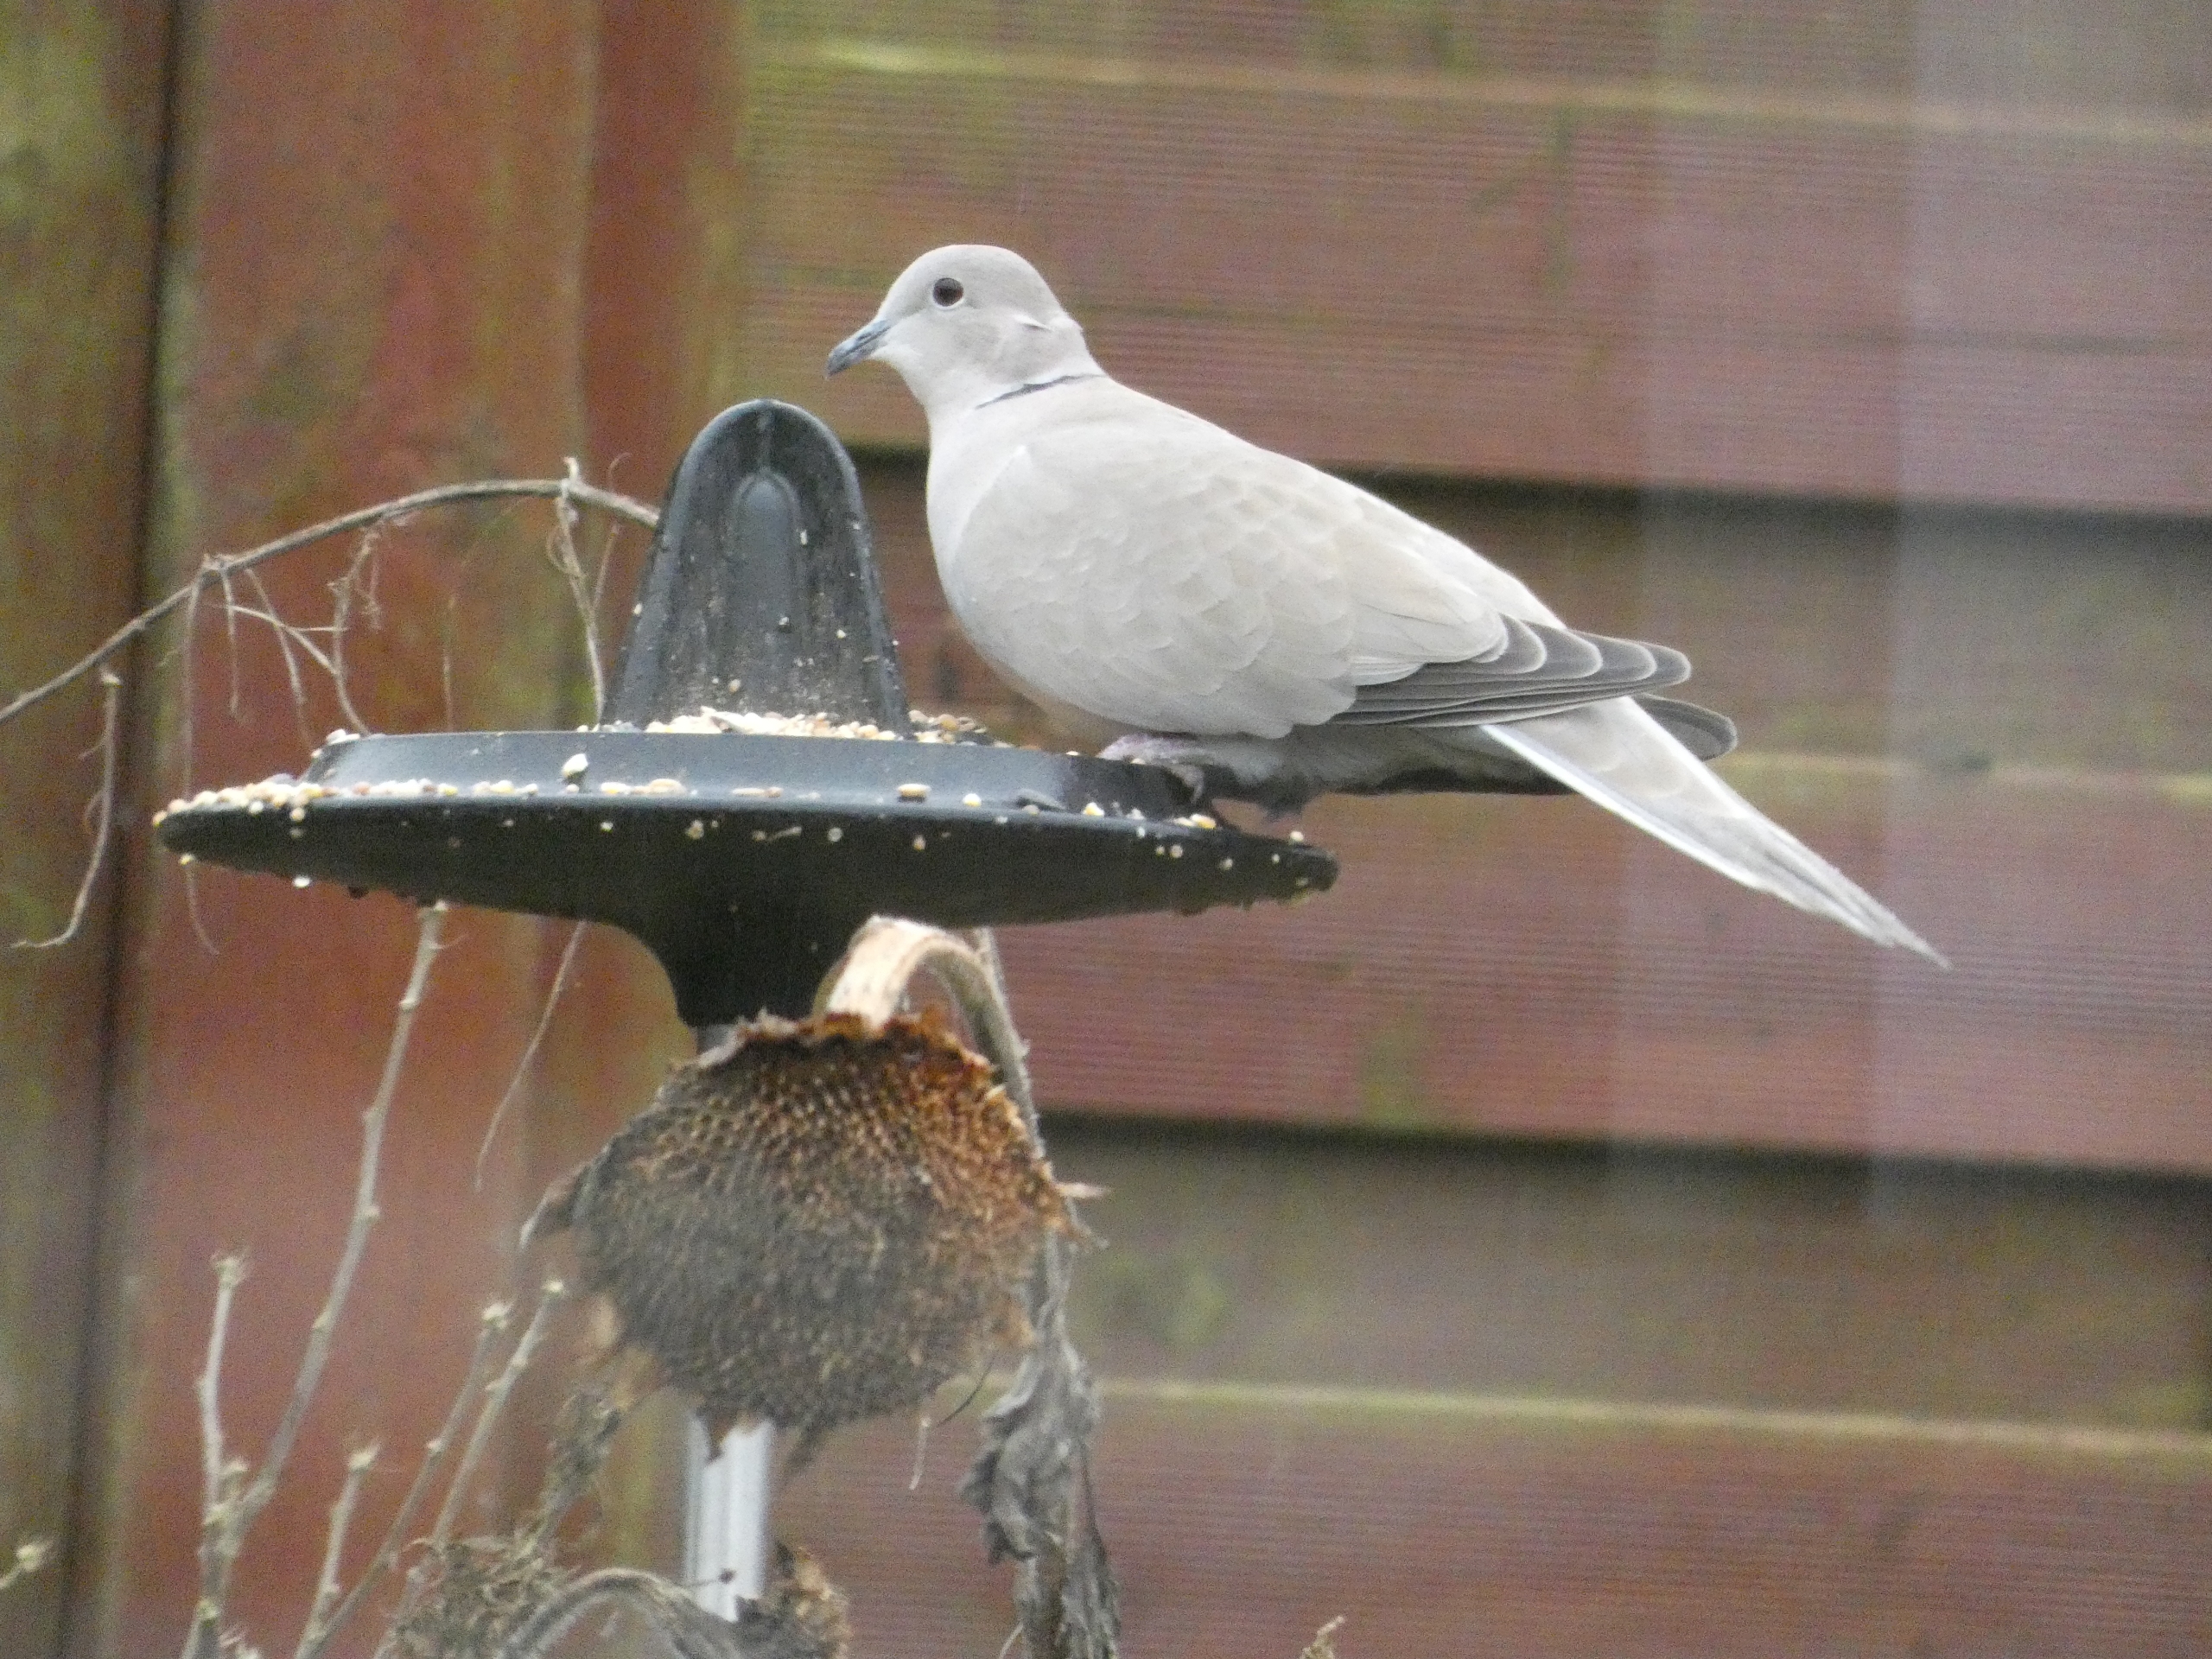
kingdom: Animalia
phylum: Chordata
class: Aves
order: Columbiformes
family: Columbidae
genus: Streptopelia
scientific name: Streptopelia decaocto
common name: Tyrkerdue
